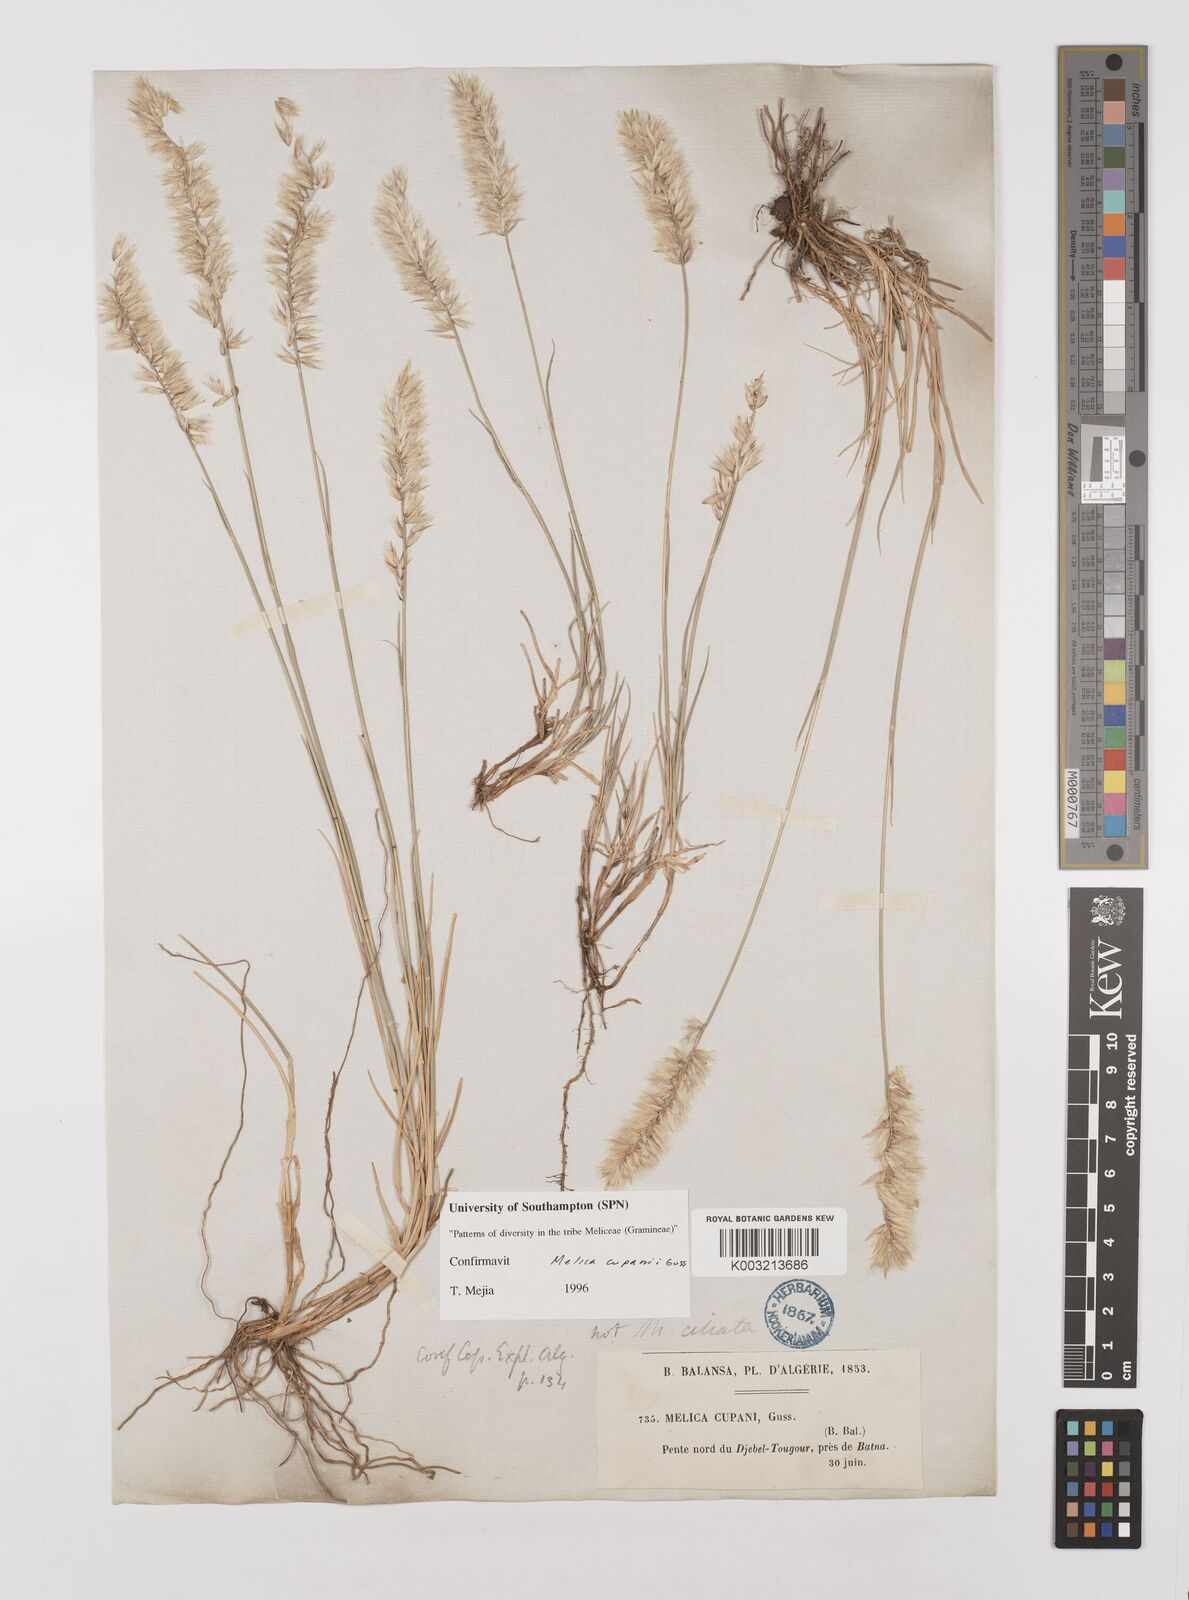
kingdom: Plantae
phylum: Tracheophyta
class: Liliopsida
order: Poales
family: Poaceae
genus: Melica
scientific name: Melica cupani
